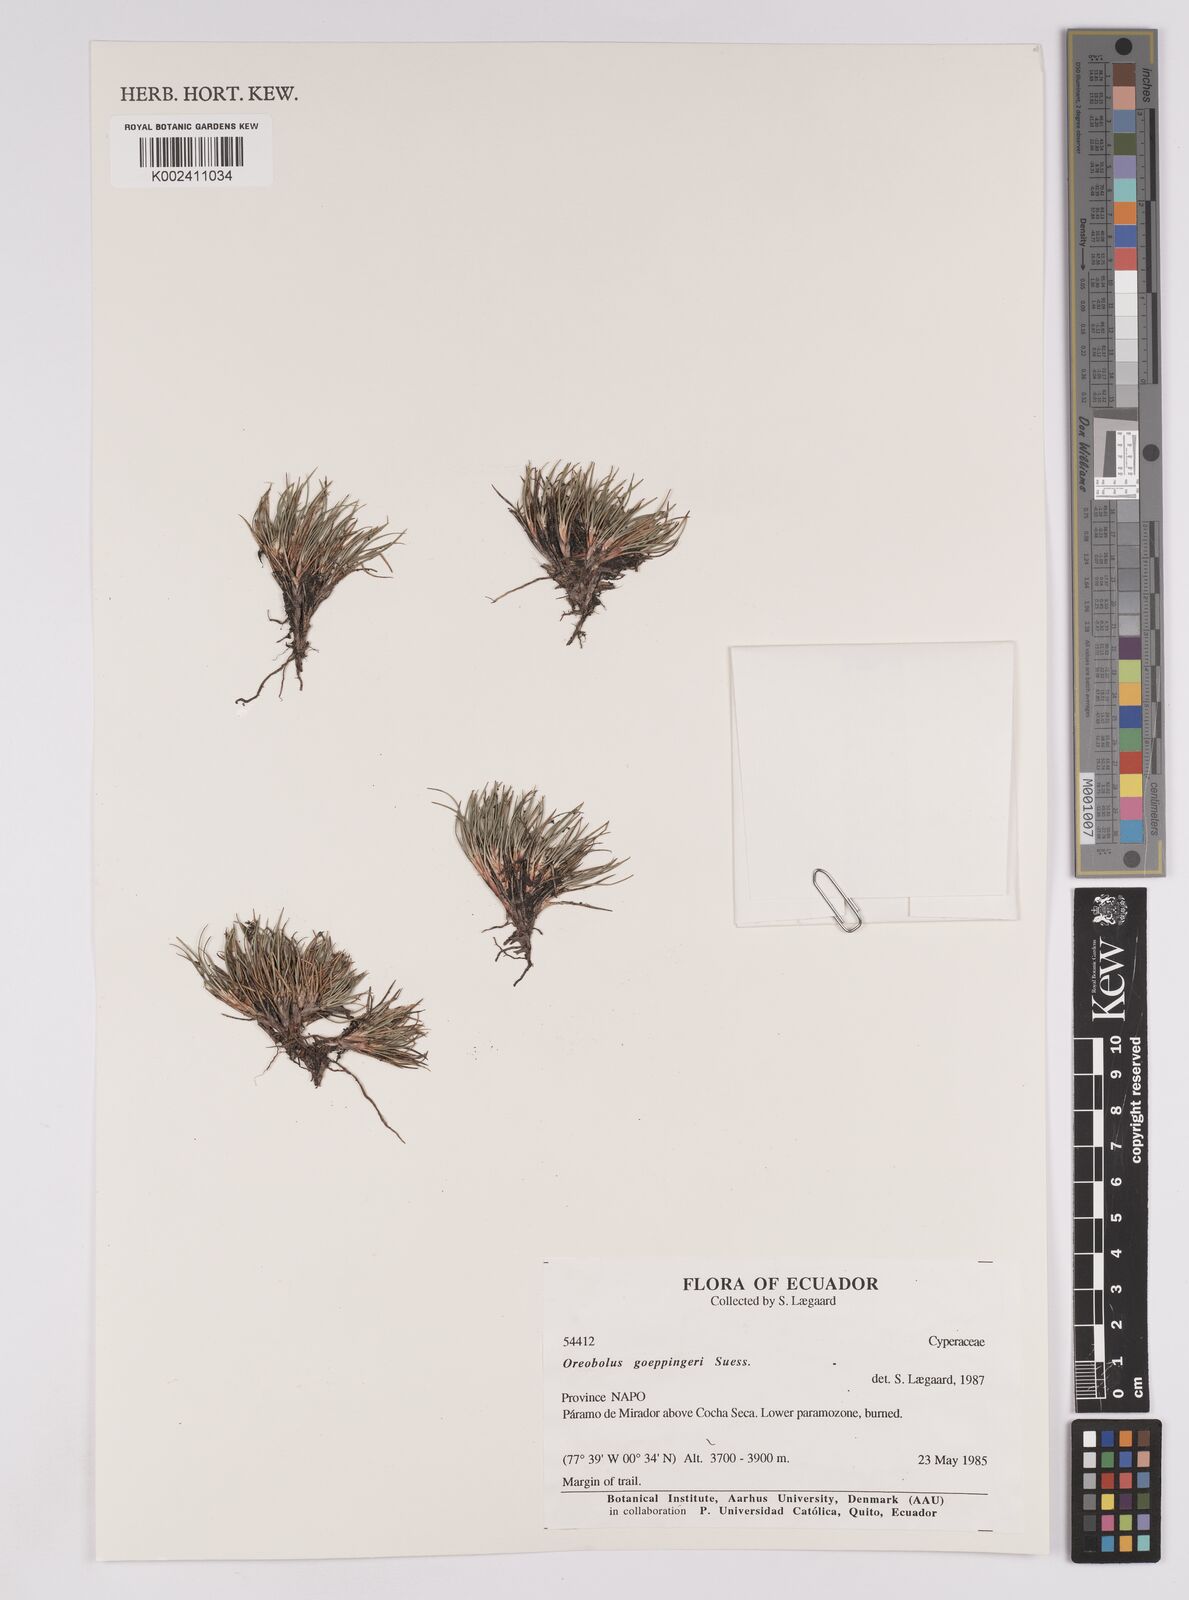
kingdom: Plantae
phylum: Tracheophyta
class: Liliopsida
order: Poales
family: Cyperaceae
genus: Oreobolus
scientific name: Oreobolus goeppingeri
